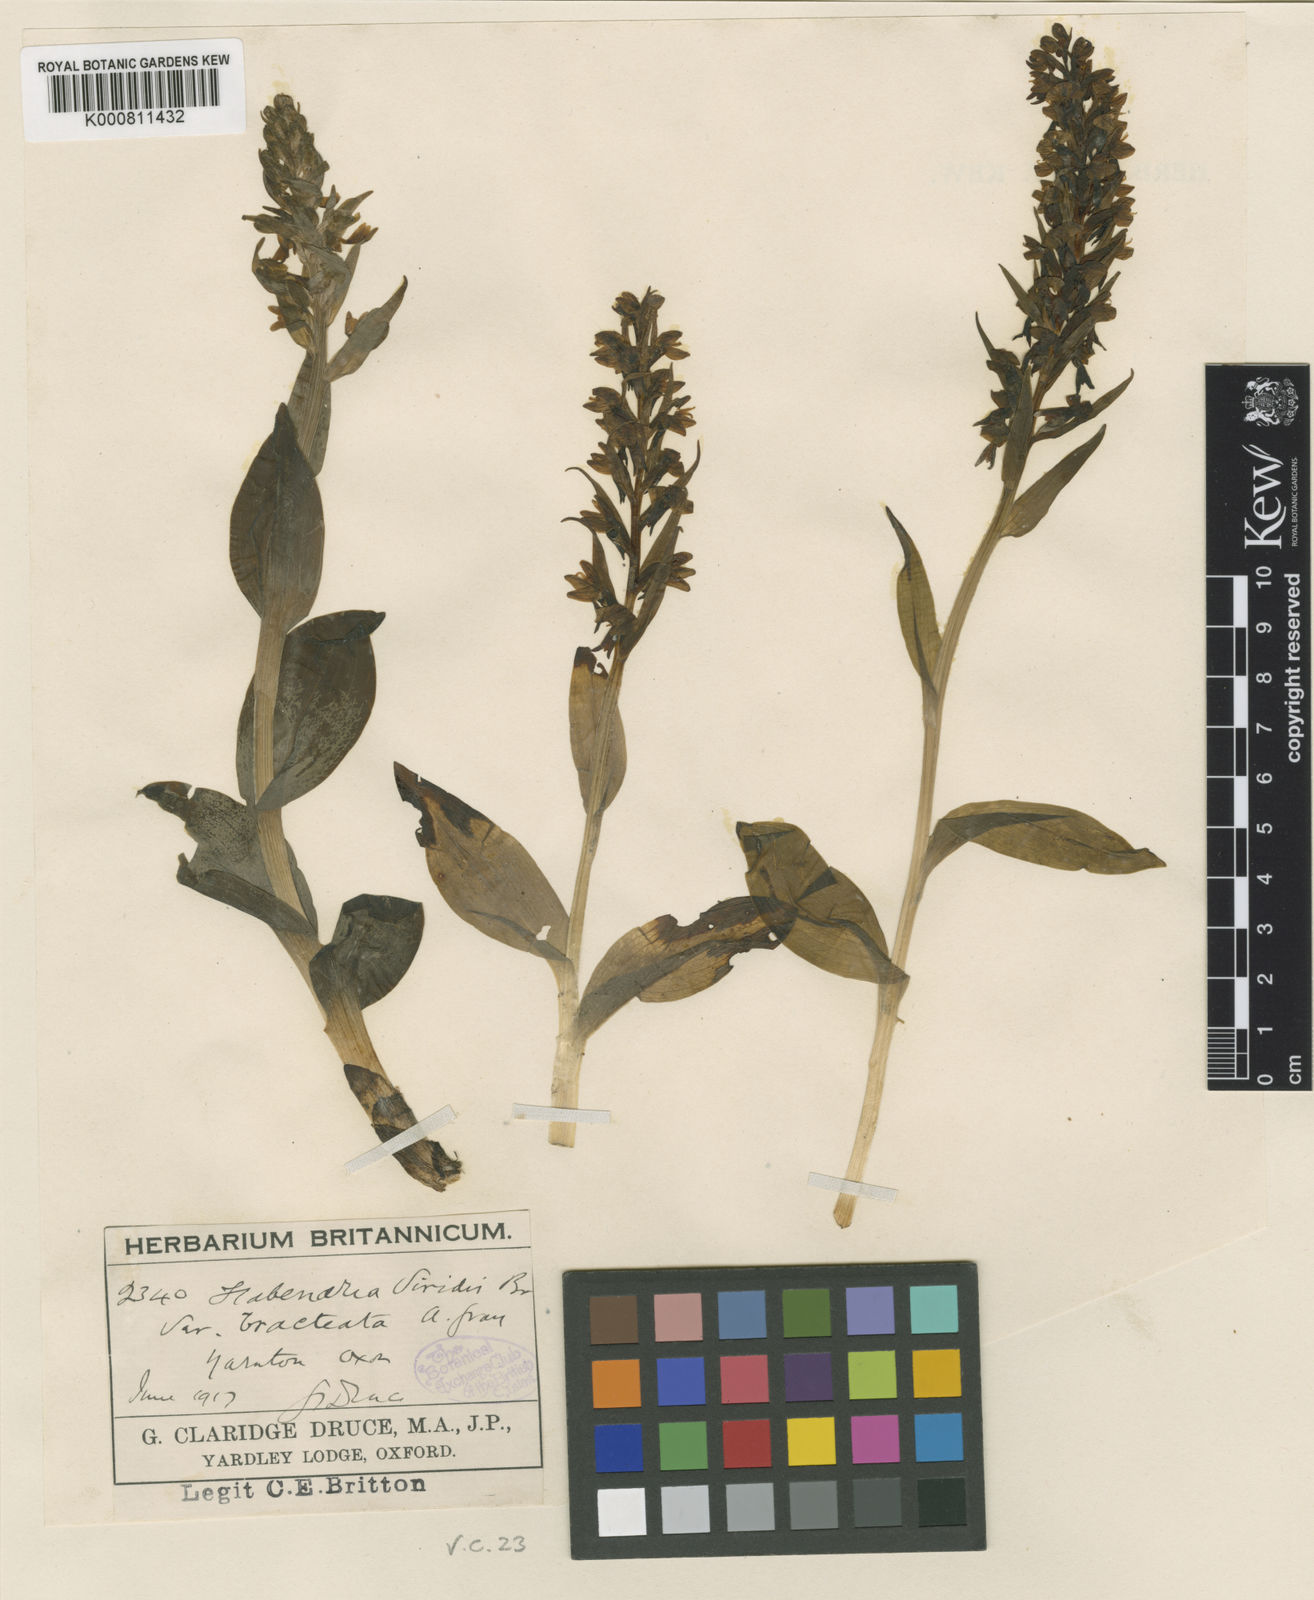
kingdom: Plantae
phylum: Tracheophyta
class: Liliopsida
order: Asparagales
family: Orchidaceae
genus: Dactylorhiza
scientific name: Dactylorhiza viridis
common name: Longbract frog orchid
